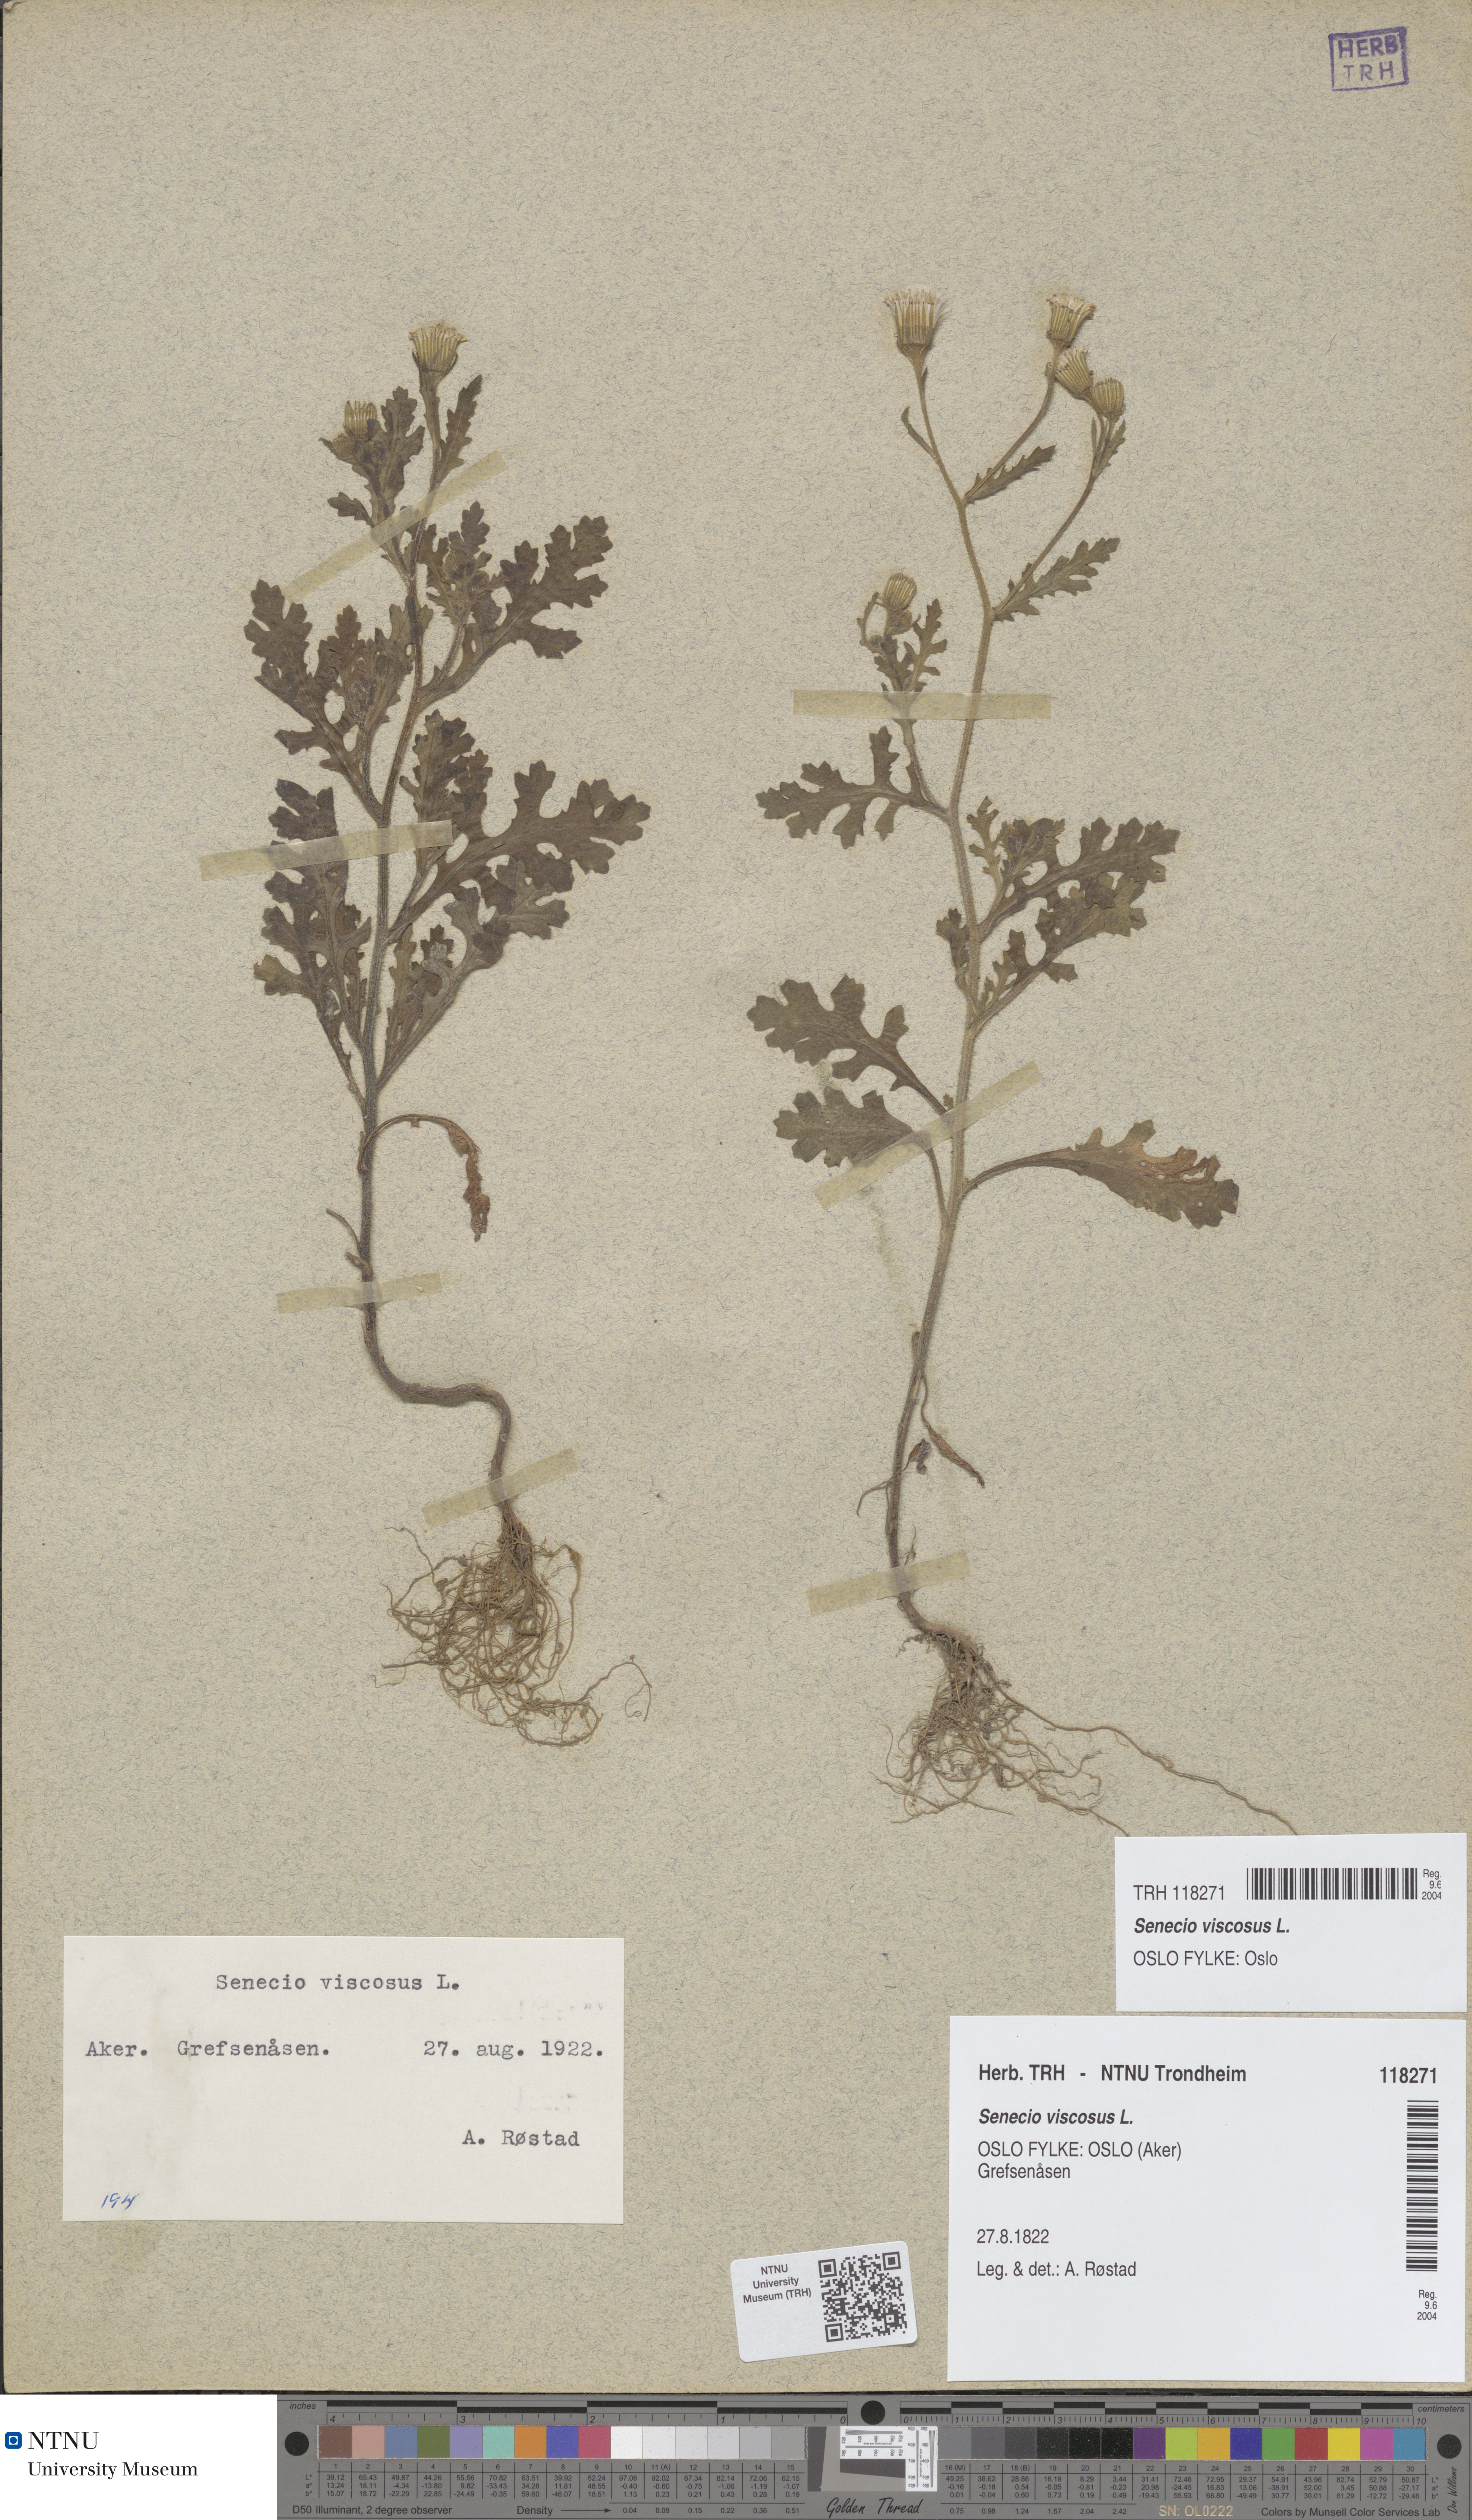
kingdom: Plantae
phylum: Tracheophyta
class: Magnoliopsida
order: Asterales
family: Asteraceae
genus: Senecio
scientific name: Senecio viscosus
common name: Sticky groundsel
